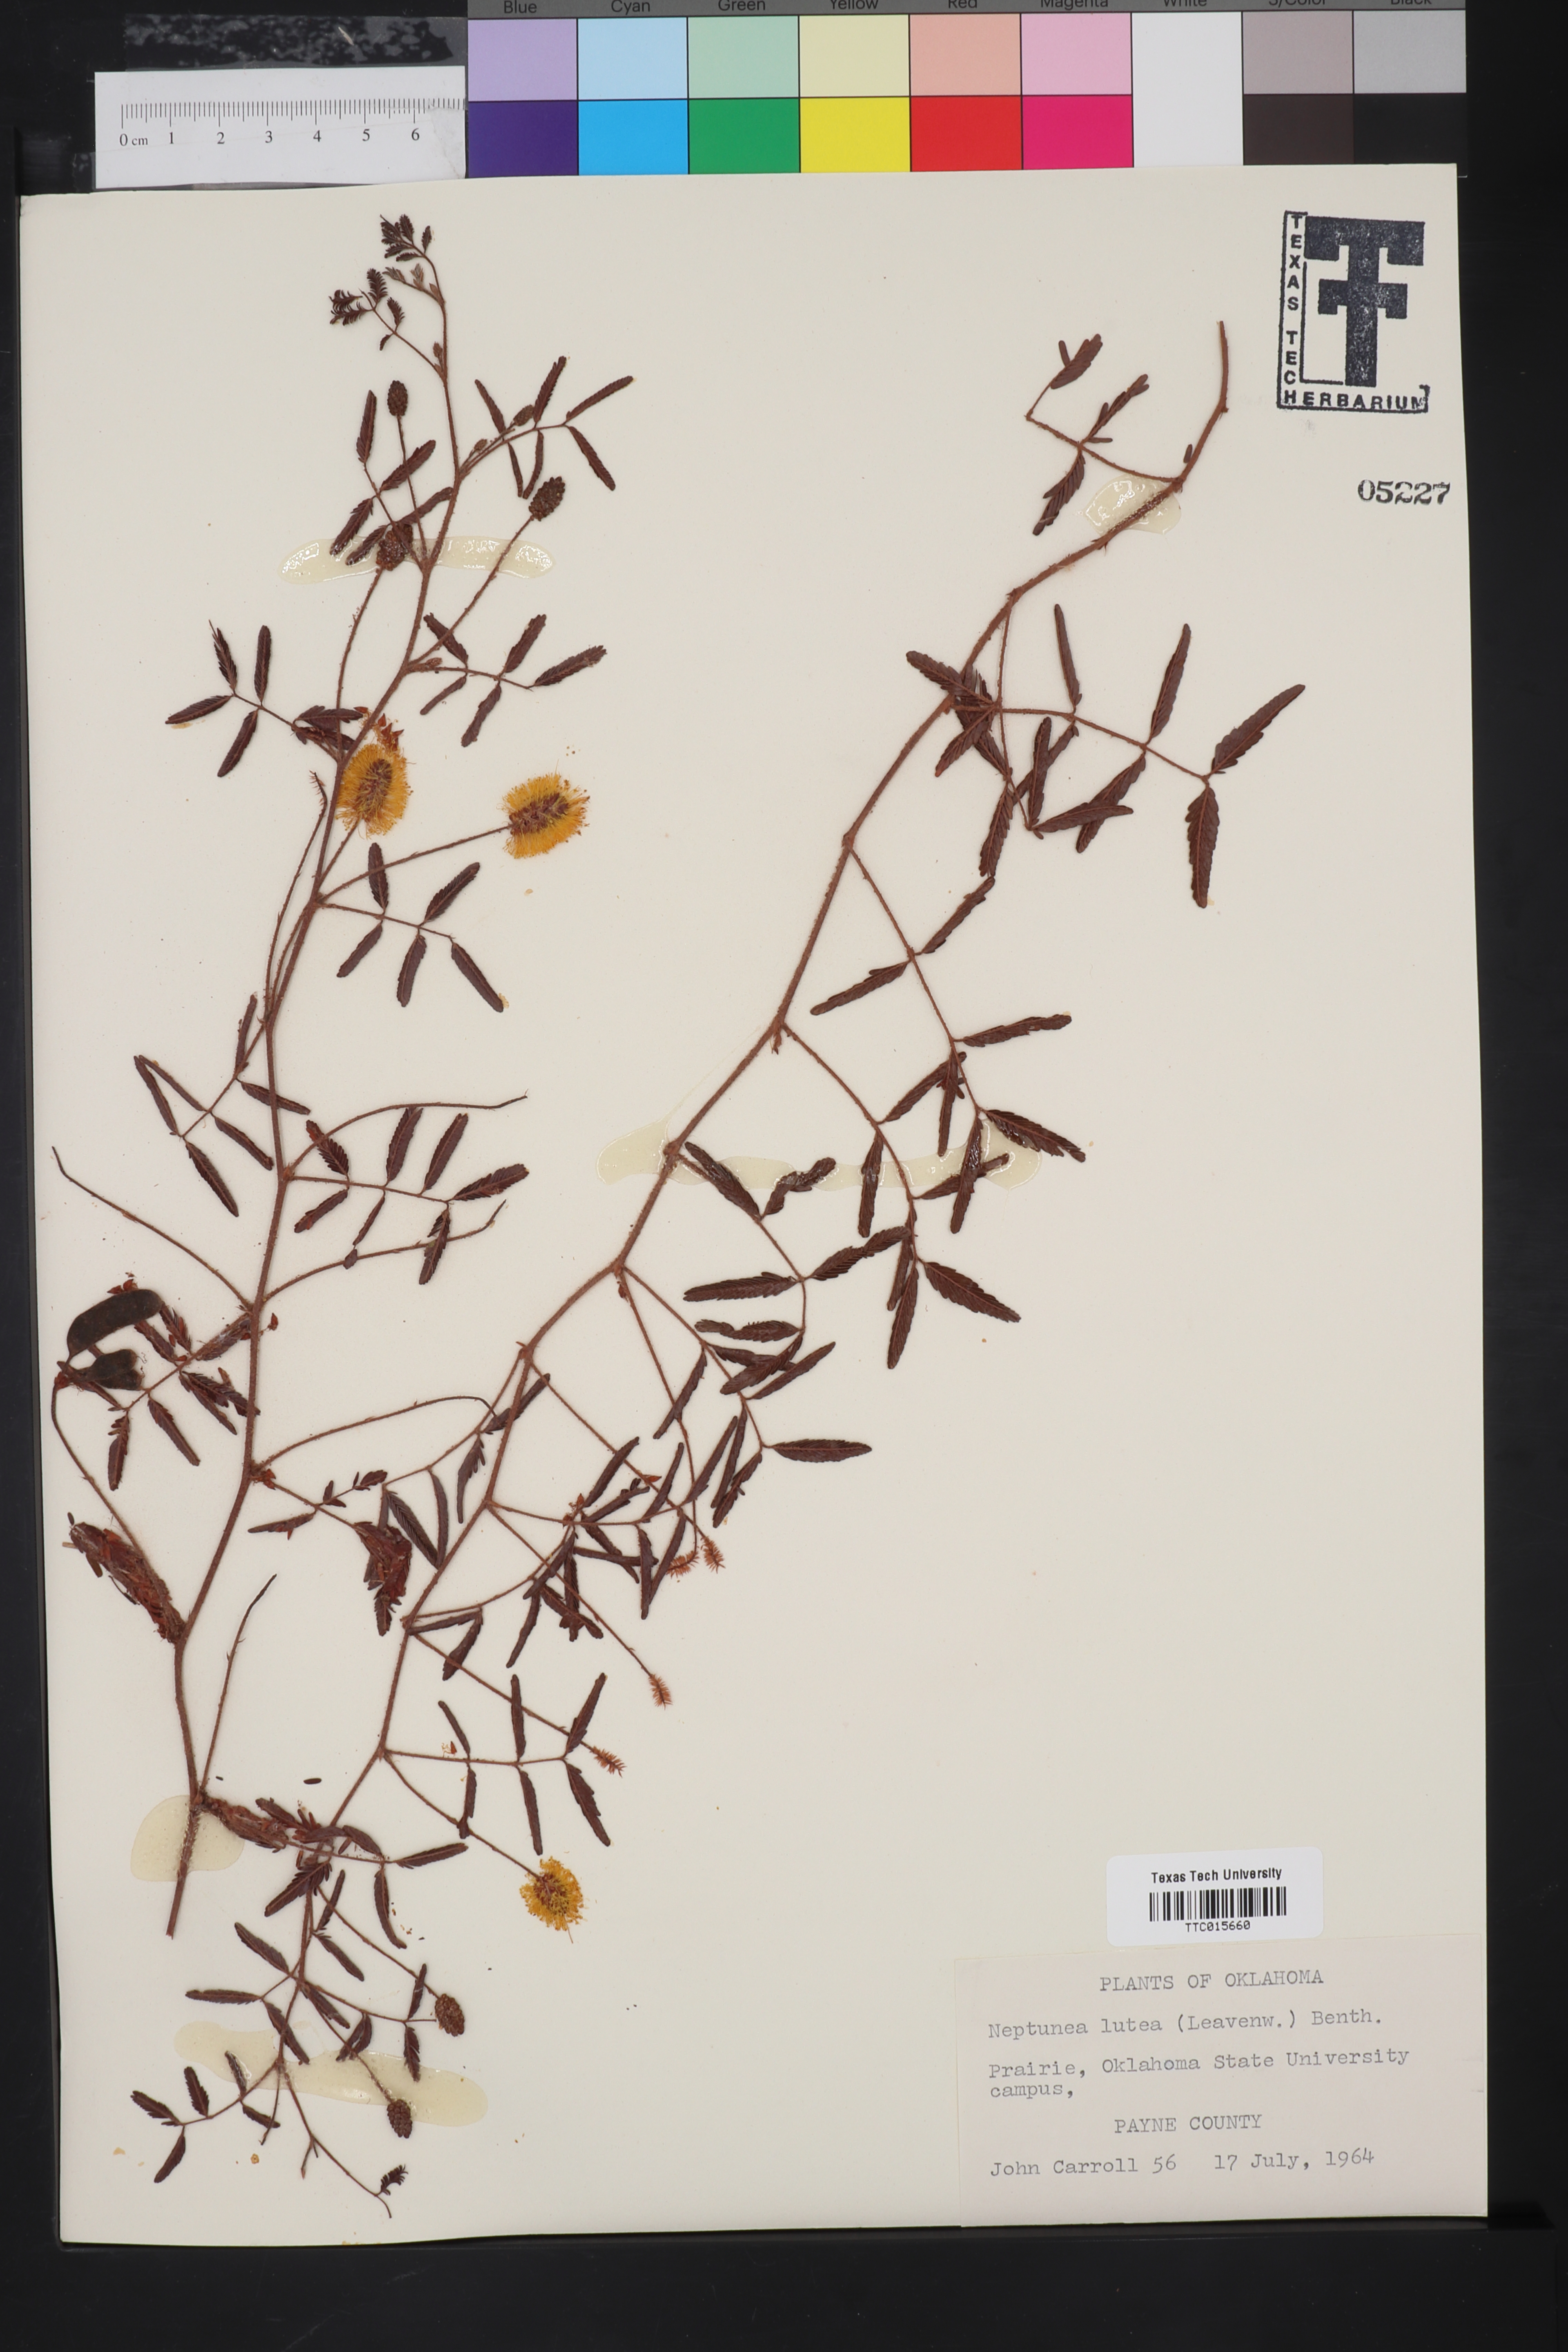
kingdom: Plantae
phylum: Tracheophyta
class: Magnoliopsida
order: Fabales
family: Fabaceae
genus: Neptunia
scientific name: Neptunia lutea
